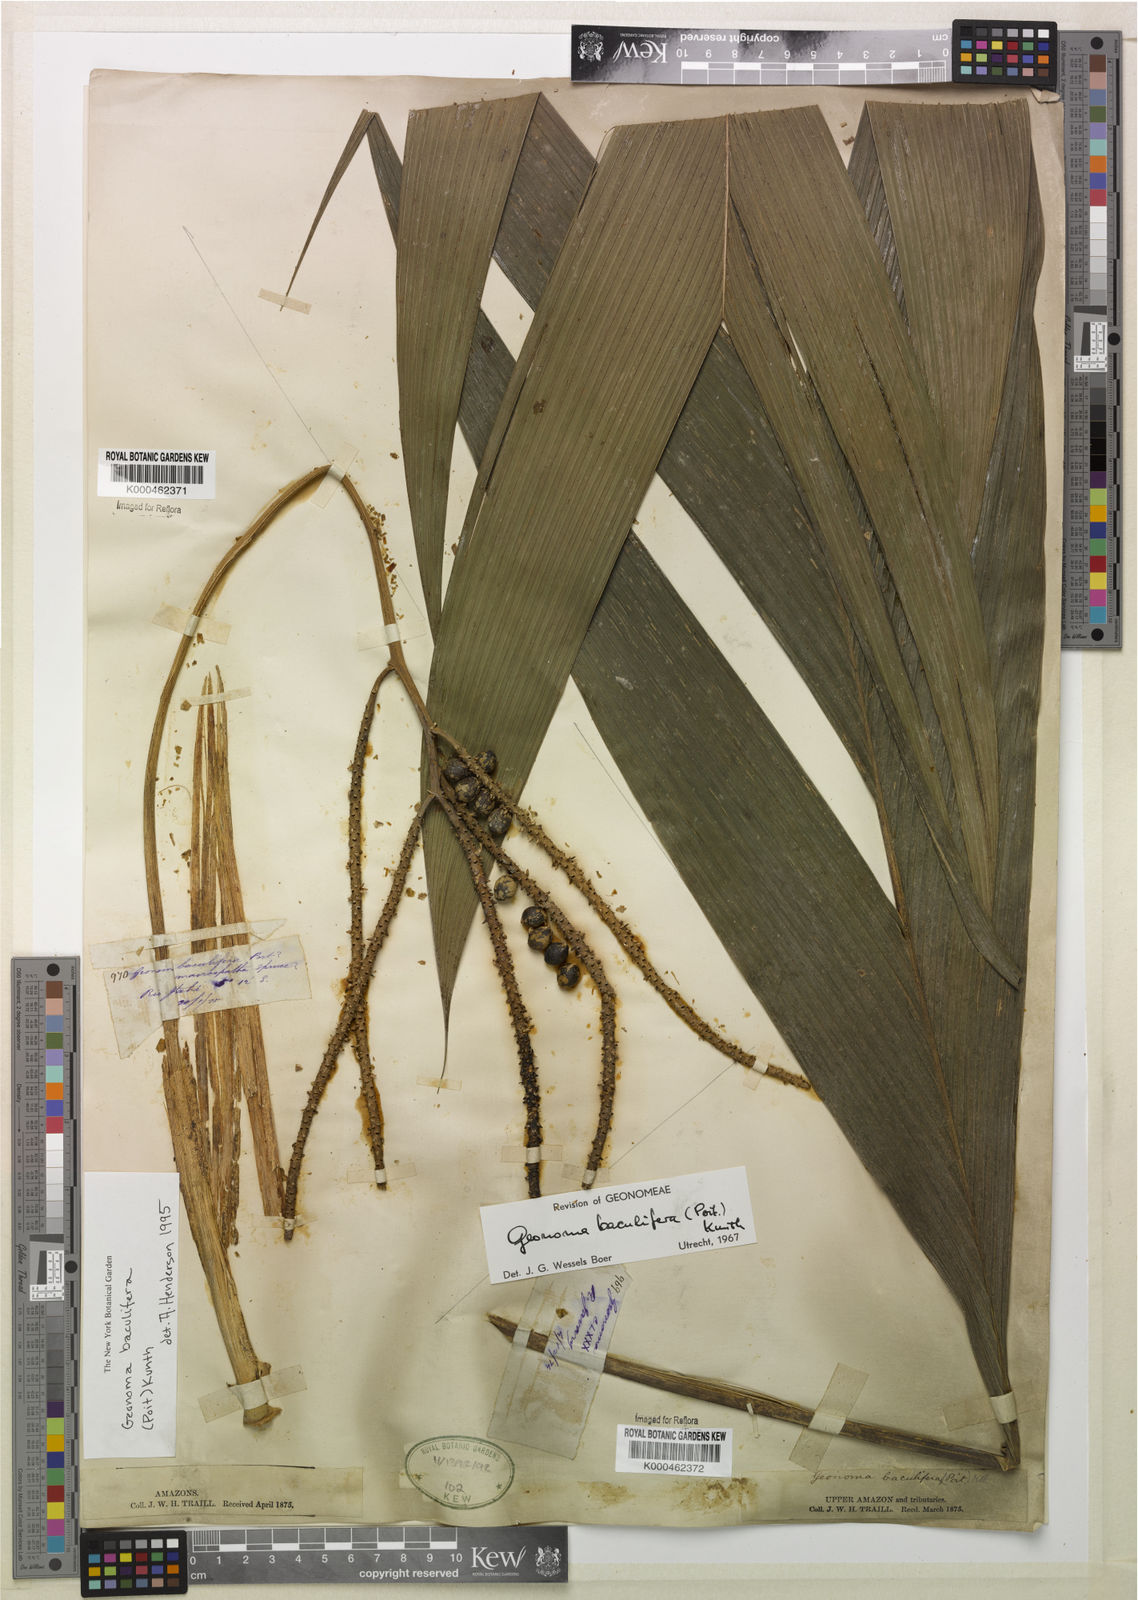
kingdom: Plantae
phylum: Tracheophyta
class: Liliopsida
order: Arecales
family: Arecaceae
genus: Geonoma
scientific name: Geonoma baculifera
